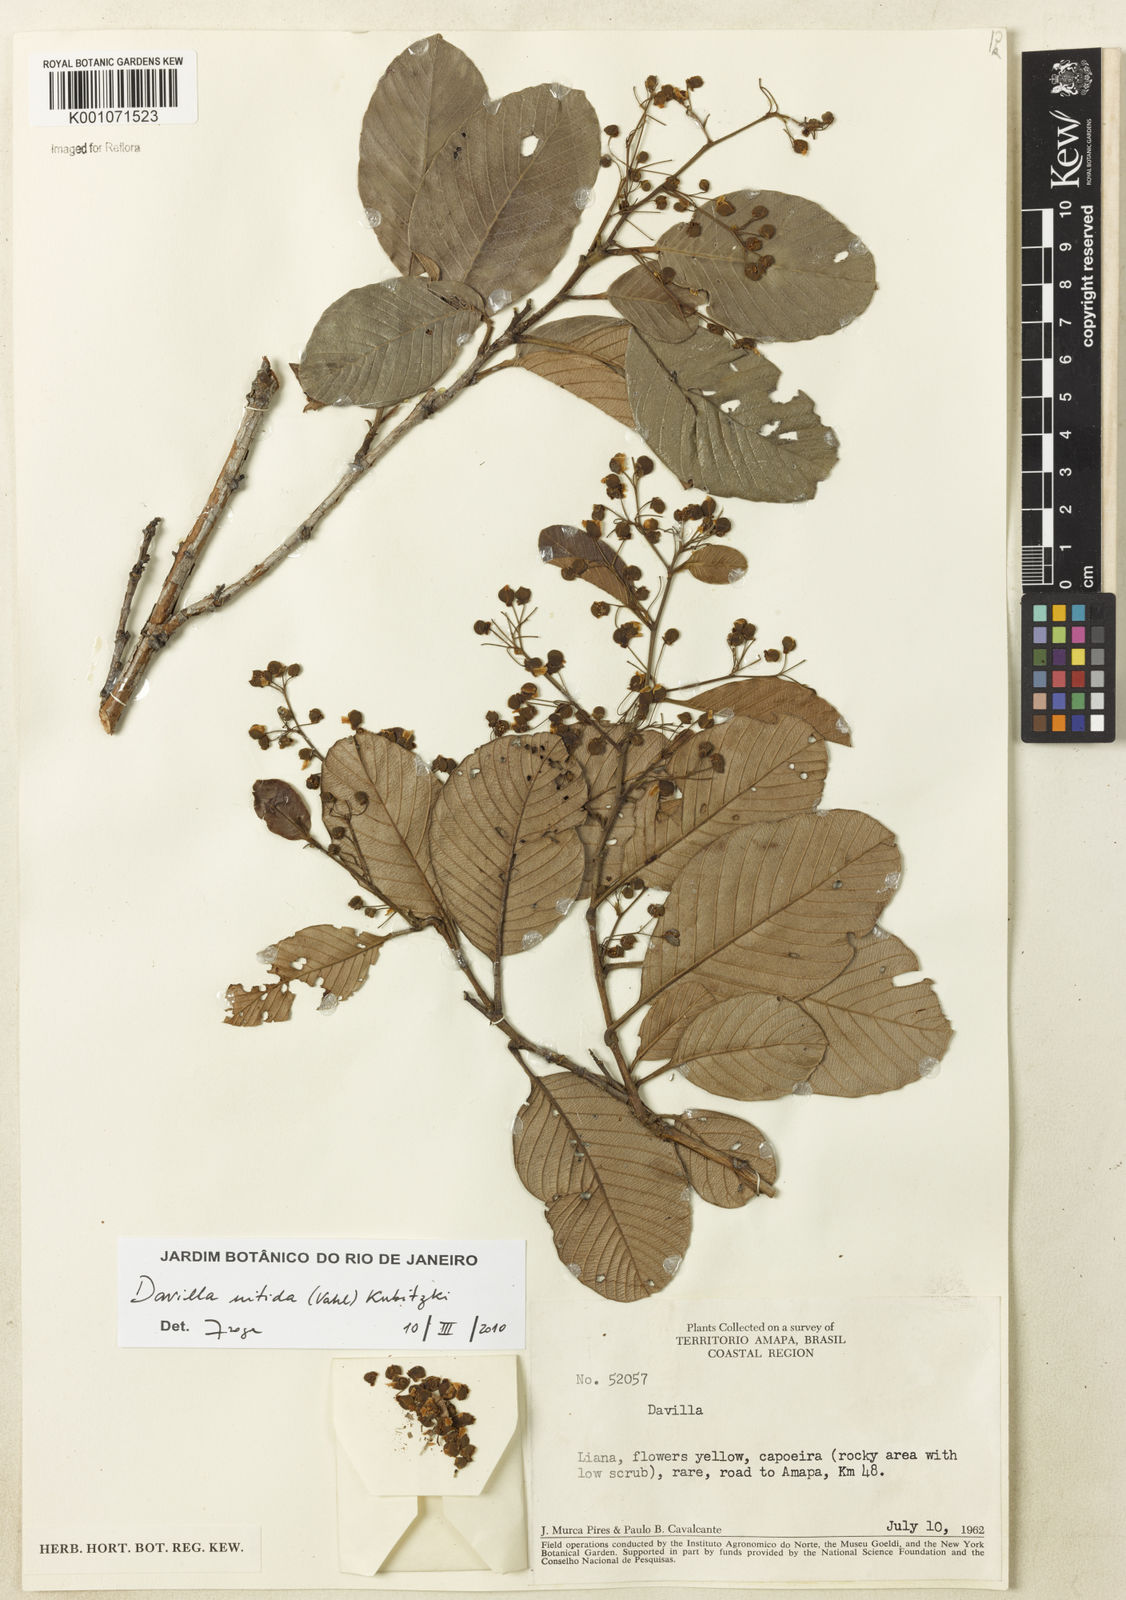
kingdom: Plantae
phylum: Tracheophyta
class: Magnoliopsida
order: Dilleniales
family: Dilleniaceae
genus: Davilla
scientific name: Davilla nitida
